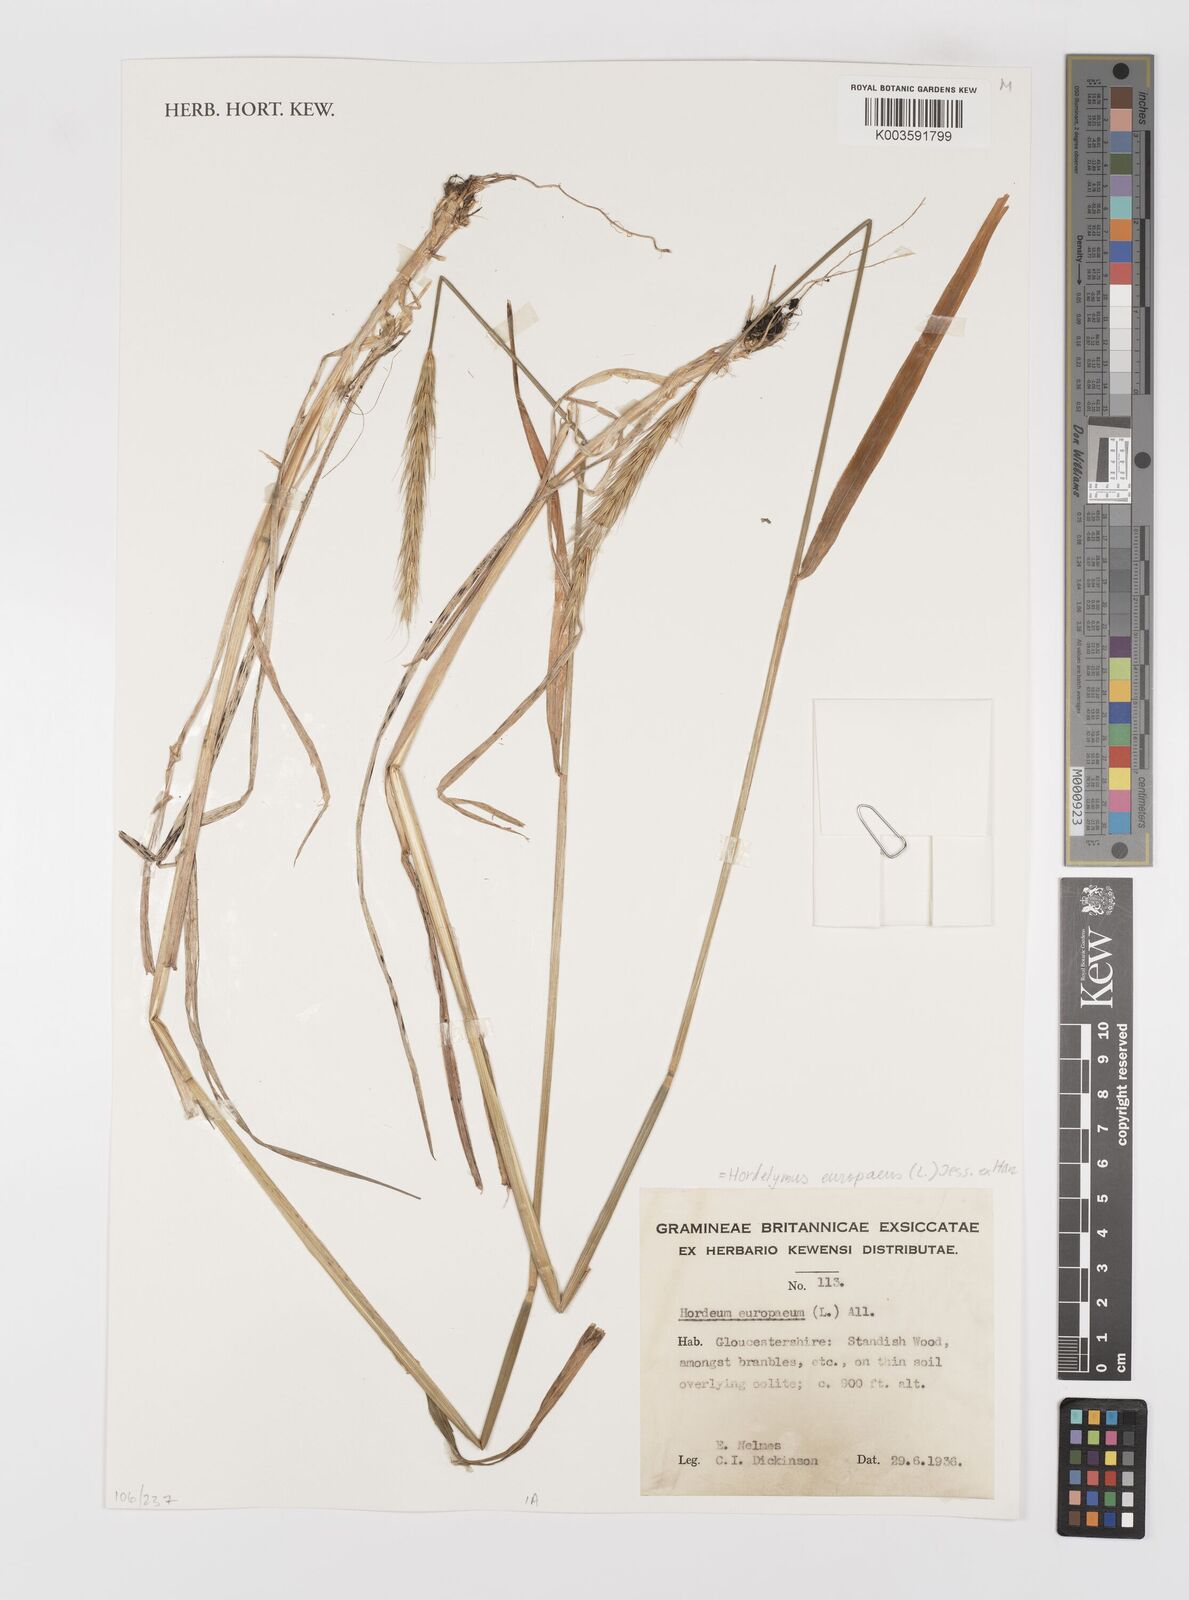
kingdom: Plantae
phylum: Tracheophyta
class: Liliopsida
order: Poales
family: Poaceae
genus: Hordelymus
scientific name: Hordelymus europaeus
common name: Wood-barley
